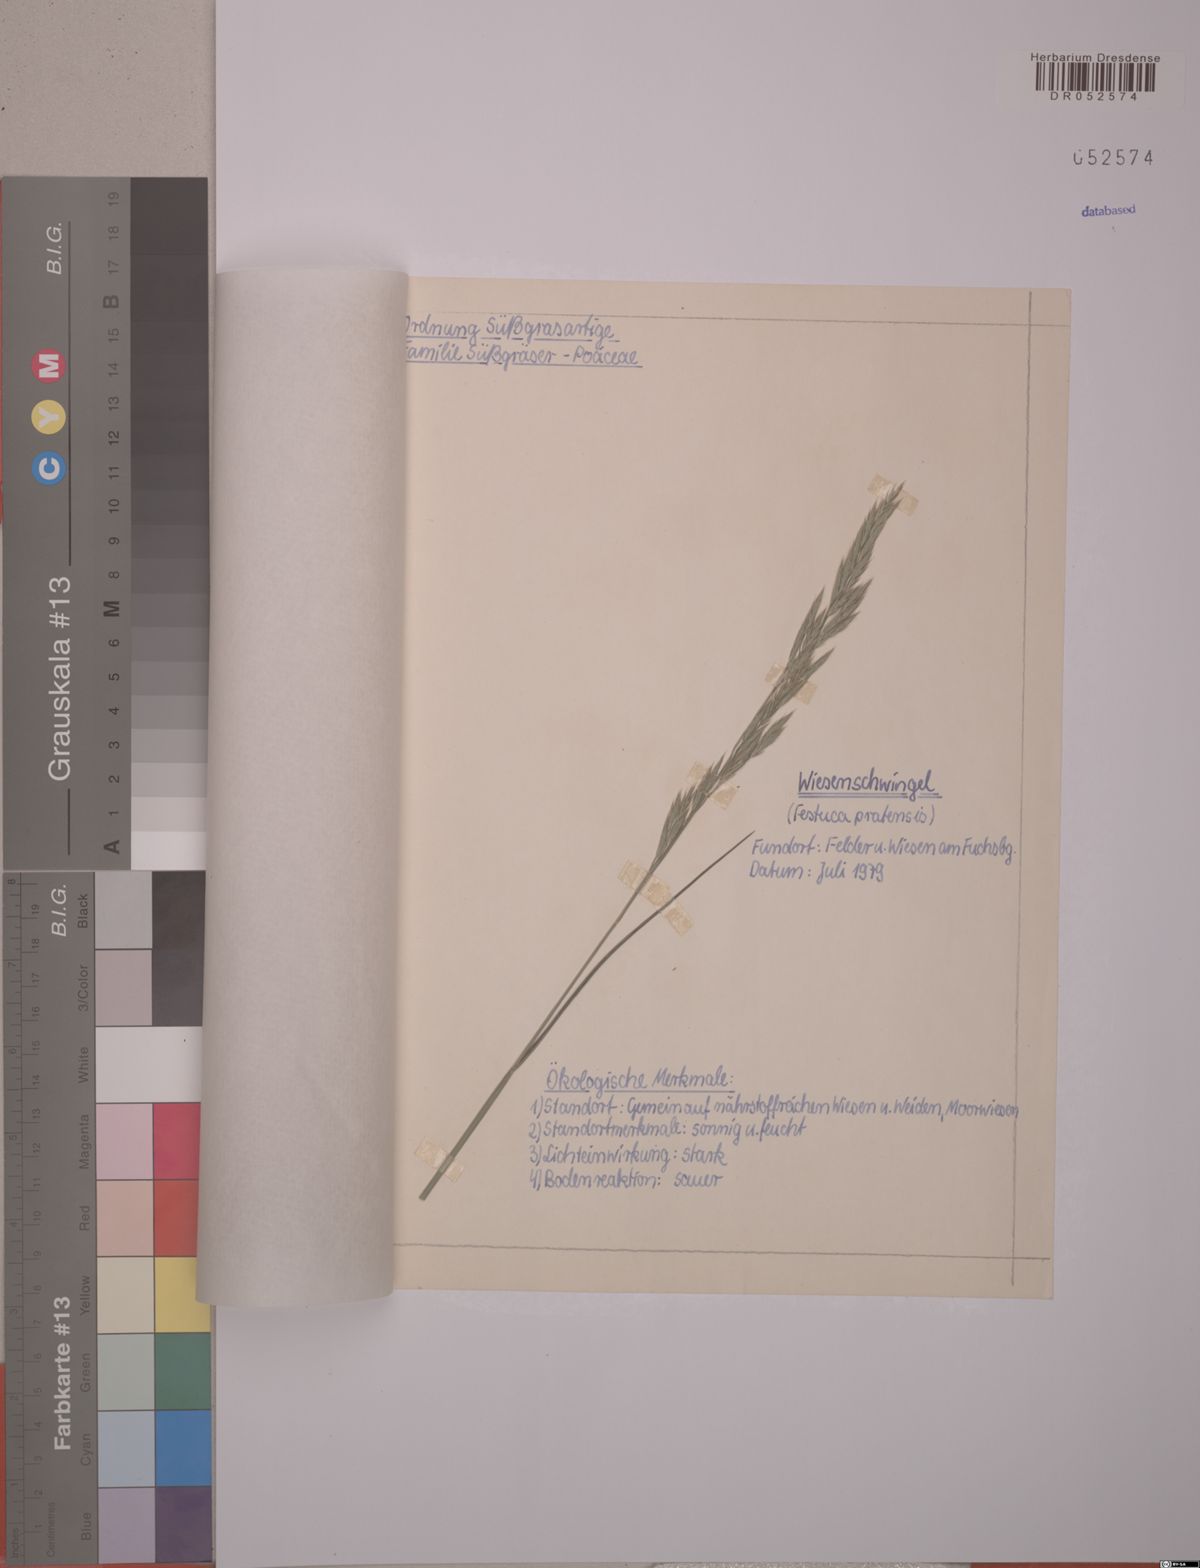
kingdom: Plantae
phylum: Tracheophyta
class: Liliopsida
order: Poales
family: Poaceae
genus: Lolium
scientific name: Lolium pratense
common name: Dover grass
